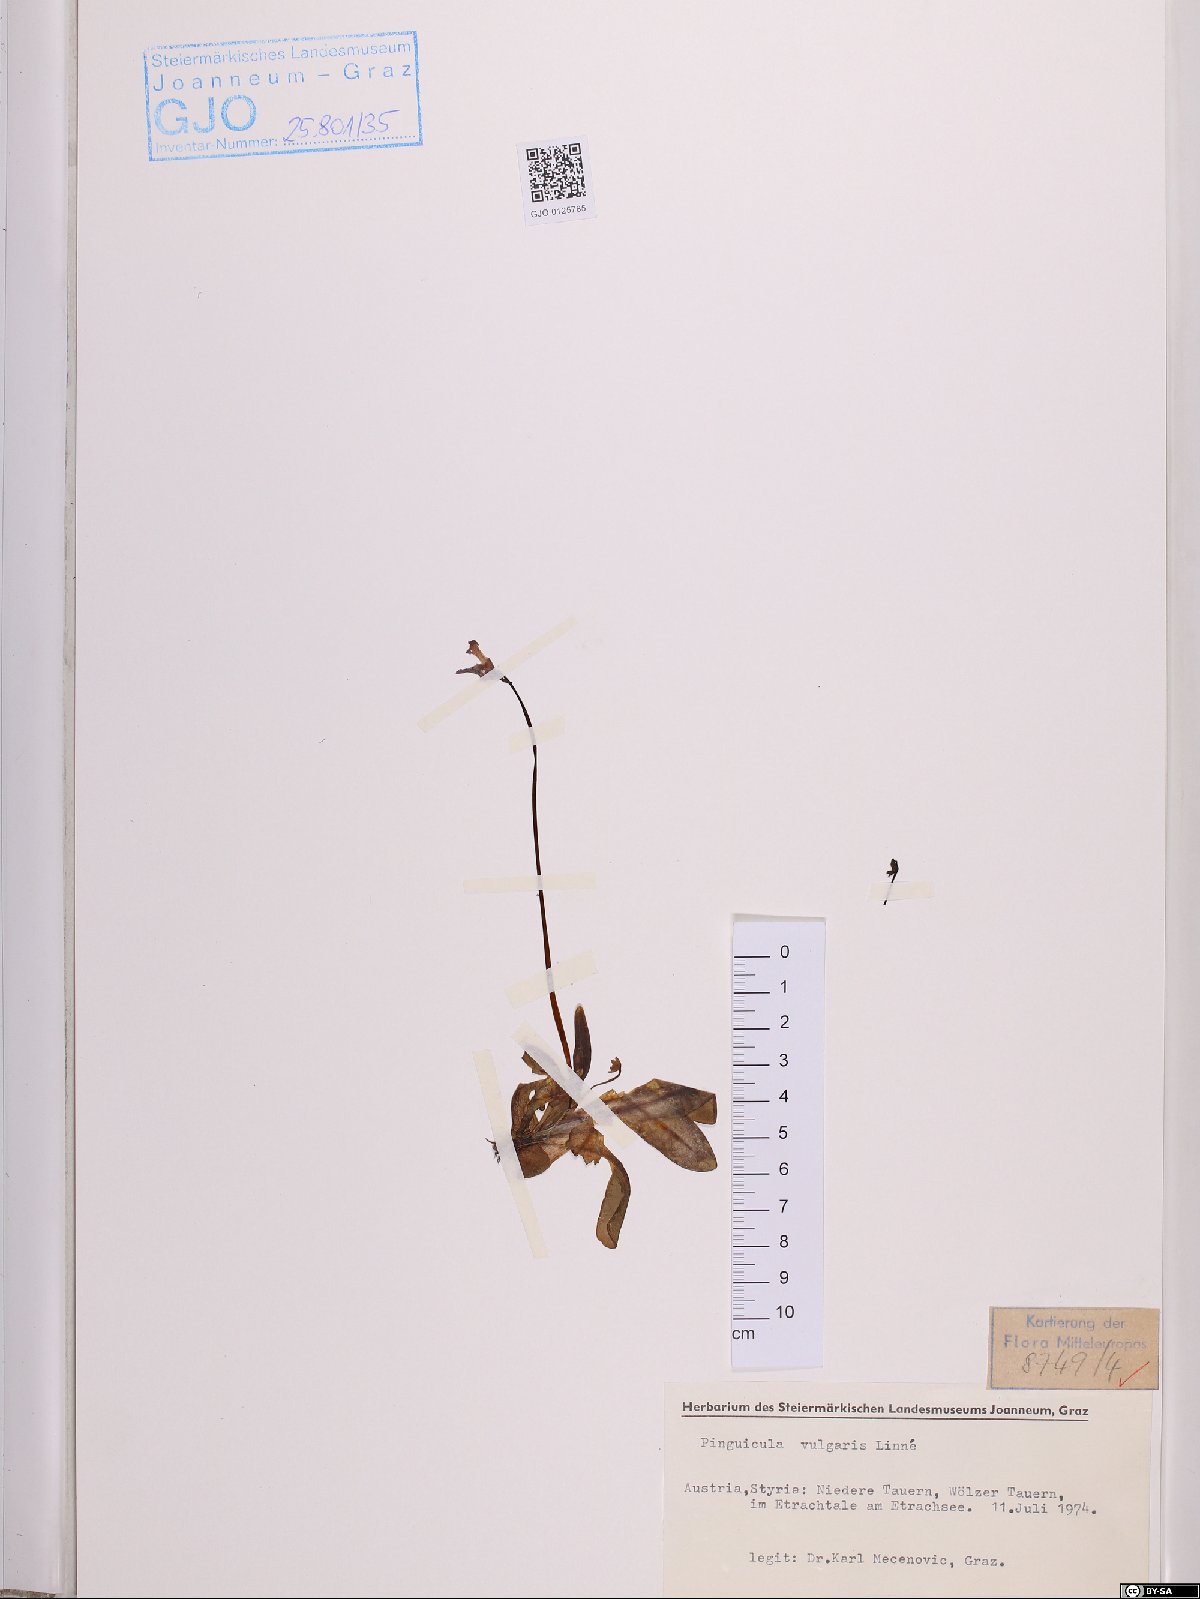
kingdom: Plantae
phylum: Tracheophyta
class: Magnoliopsida
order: Lamiales
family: Lentibulariaceae
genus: Pinguicula
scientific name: Pinguicula vulgaris
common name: Common butterwort
